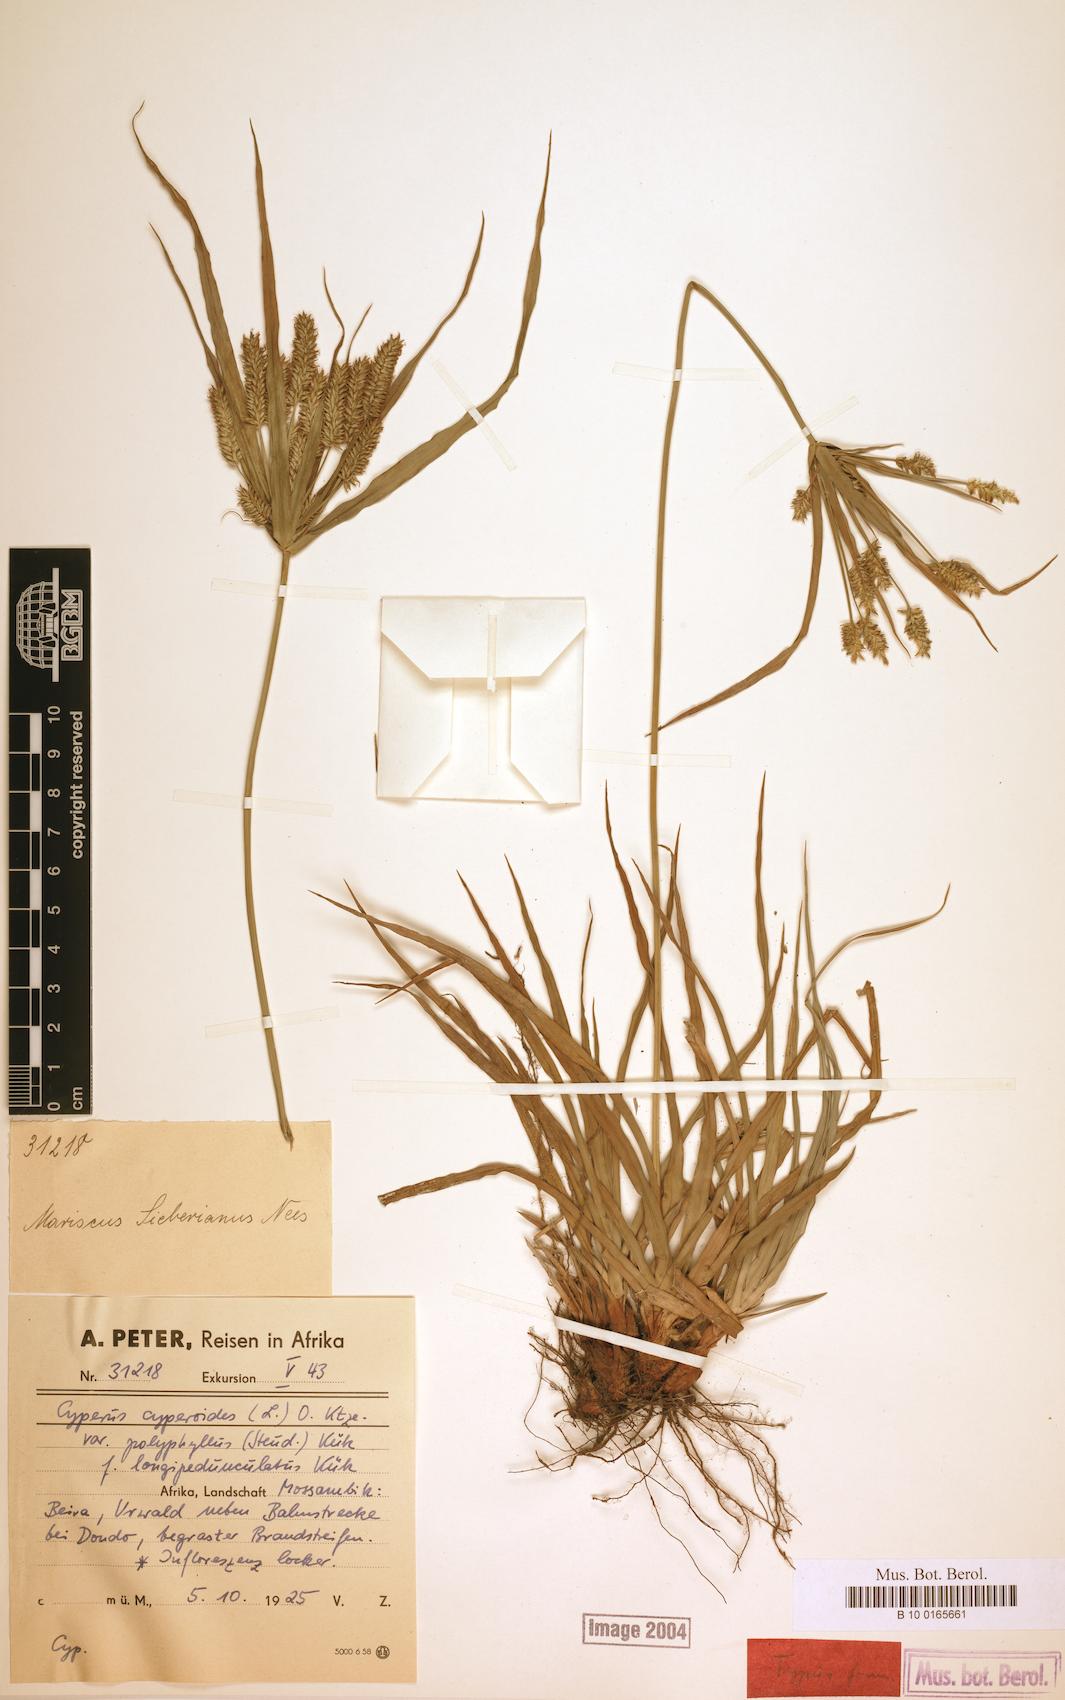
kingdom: Plantae
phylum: Tracheophyta
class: Liliopsida
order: Poales
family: Cyperaceae
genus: Cyperus
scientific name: Cyperus cyperoides
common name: Pacific island flat sedge
